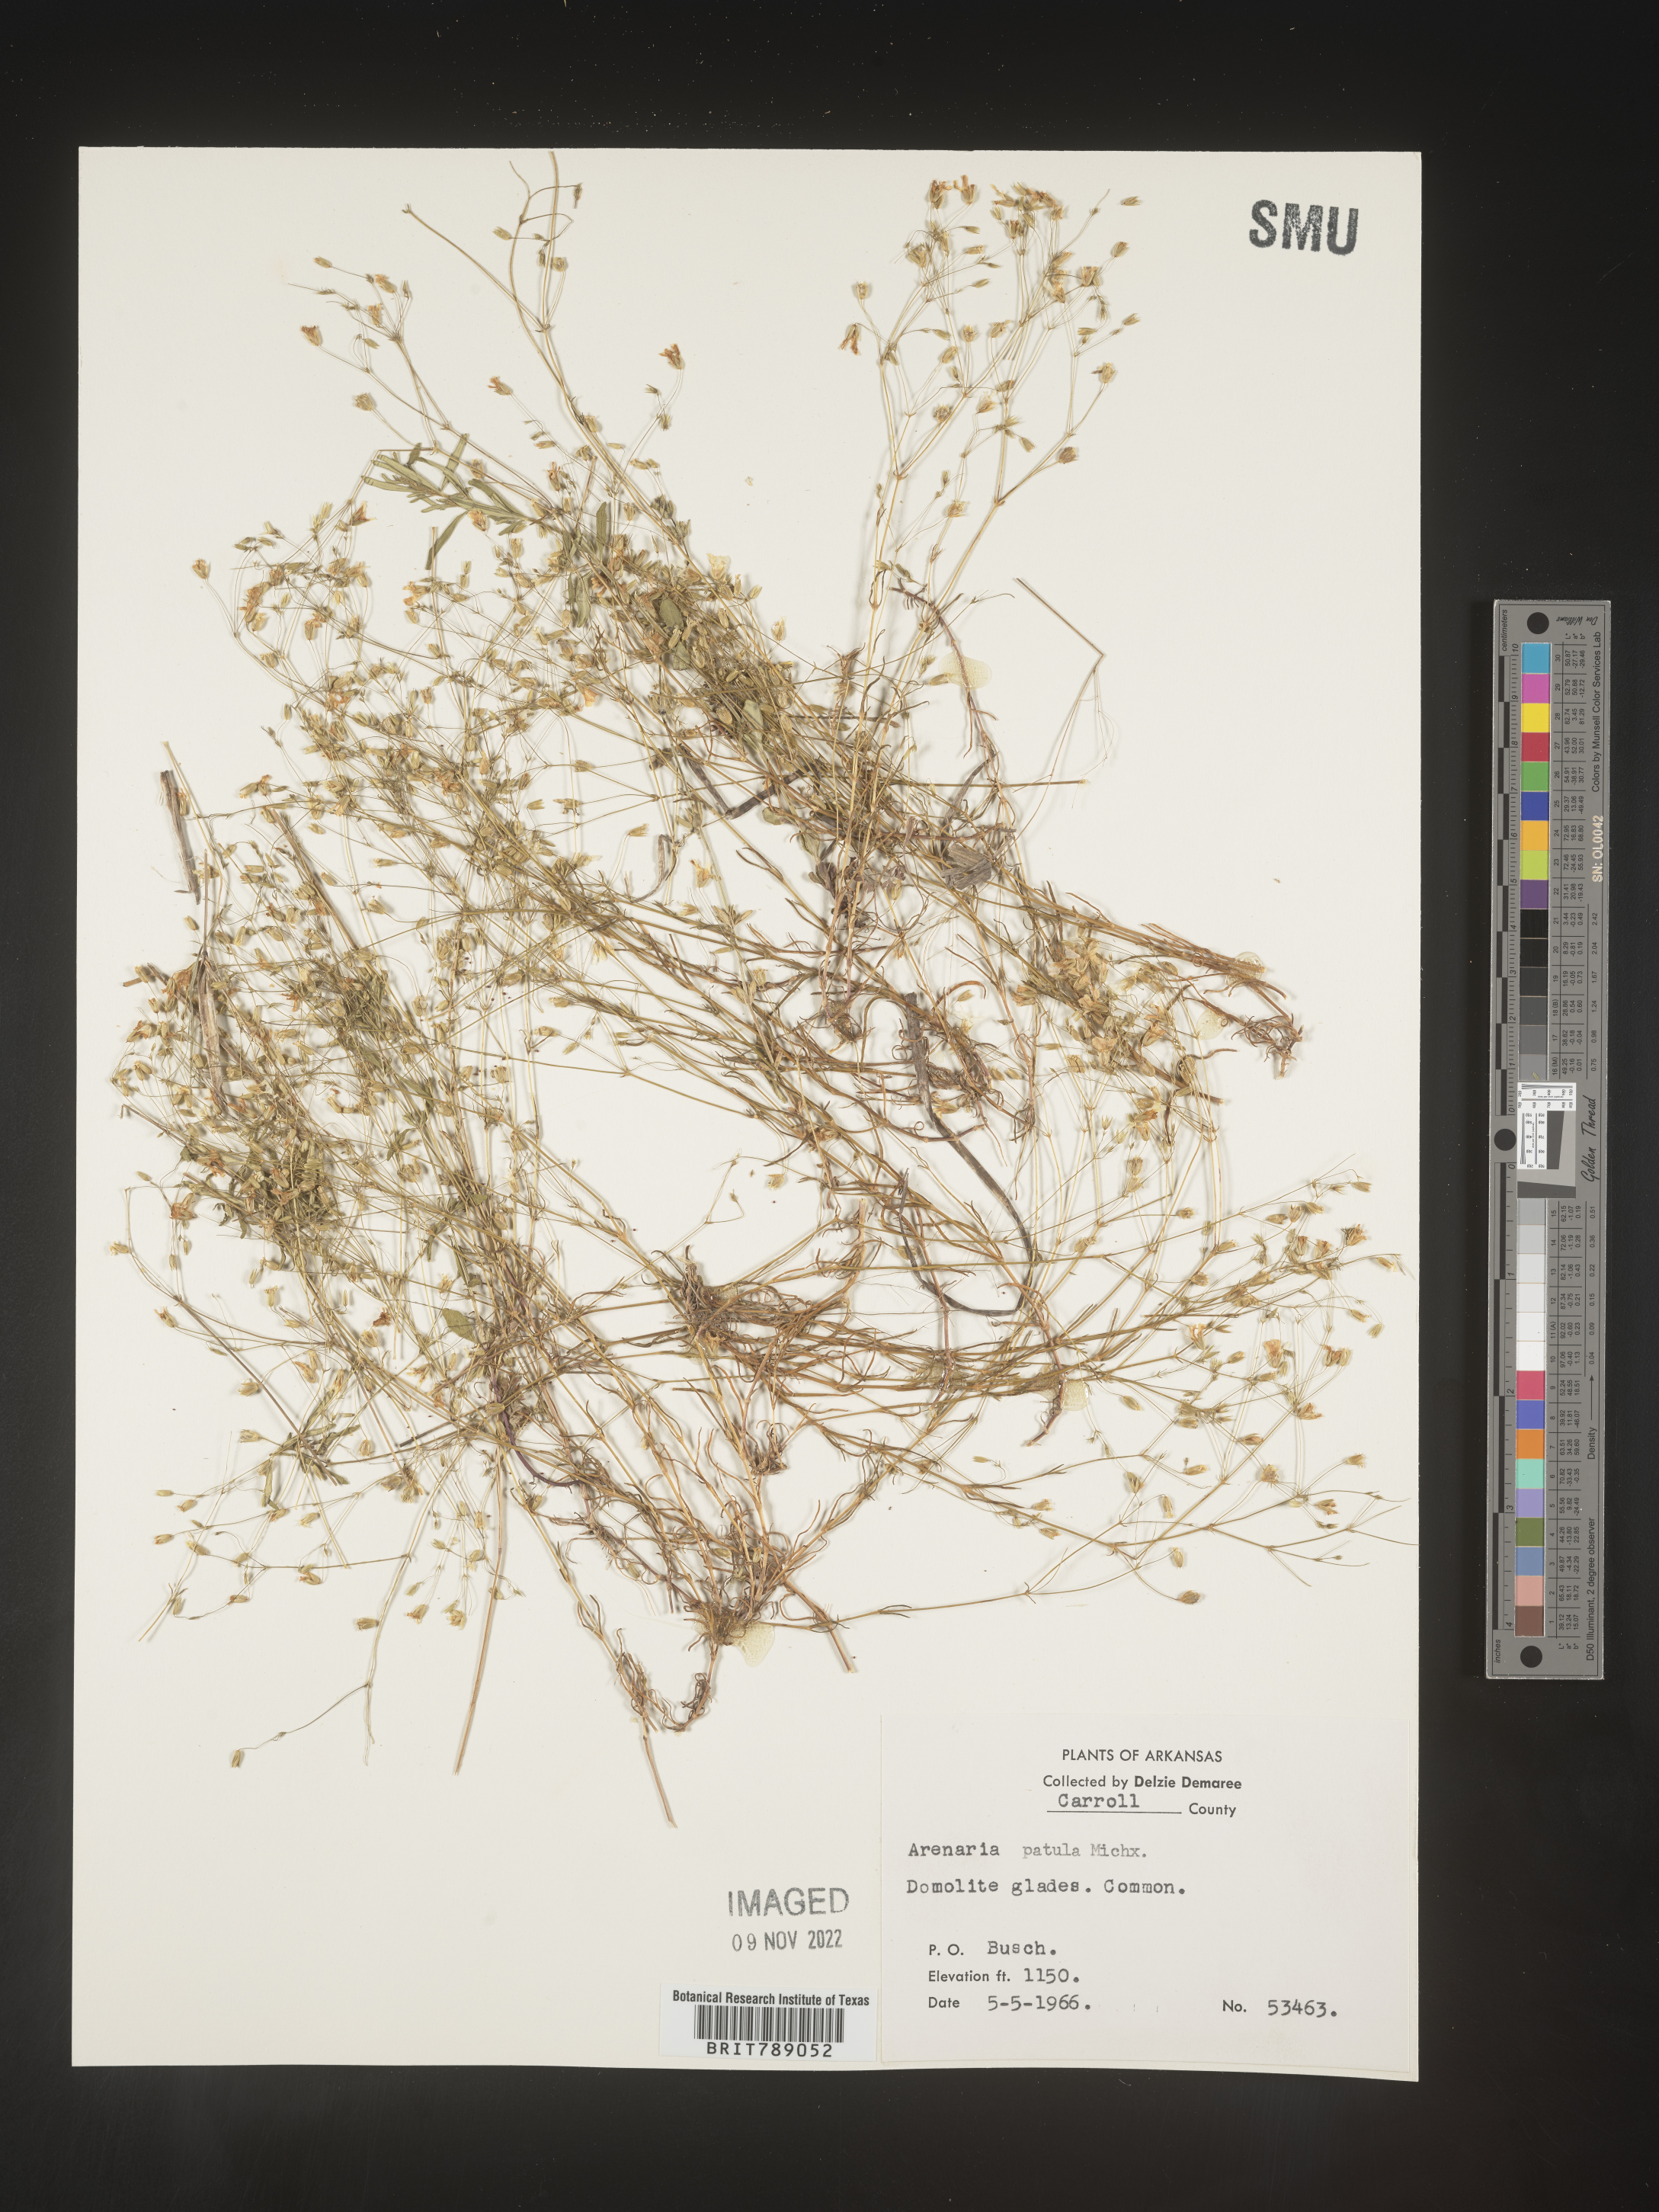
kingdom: Plantae
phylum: Tracheophyta
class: Magnoliopsida
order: Caryophyllales
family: Caryophyllaceae
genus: Mononeuria
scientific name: Mononeuria patula
